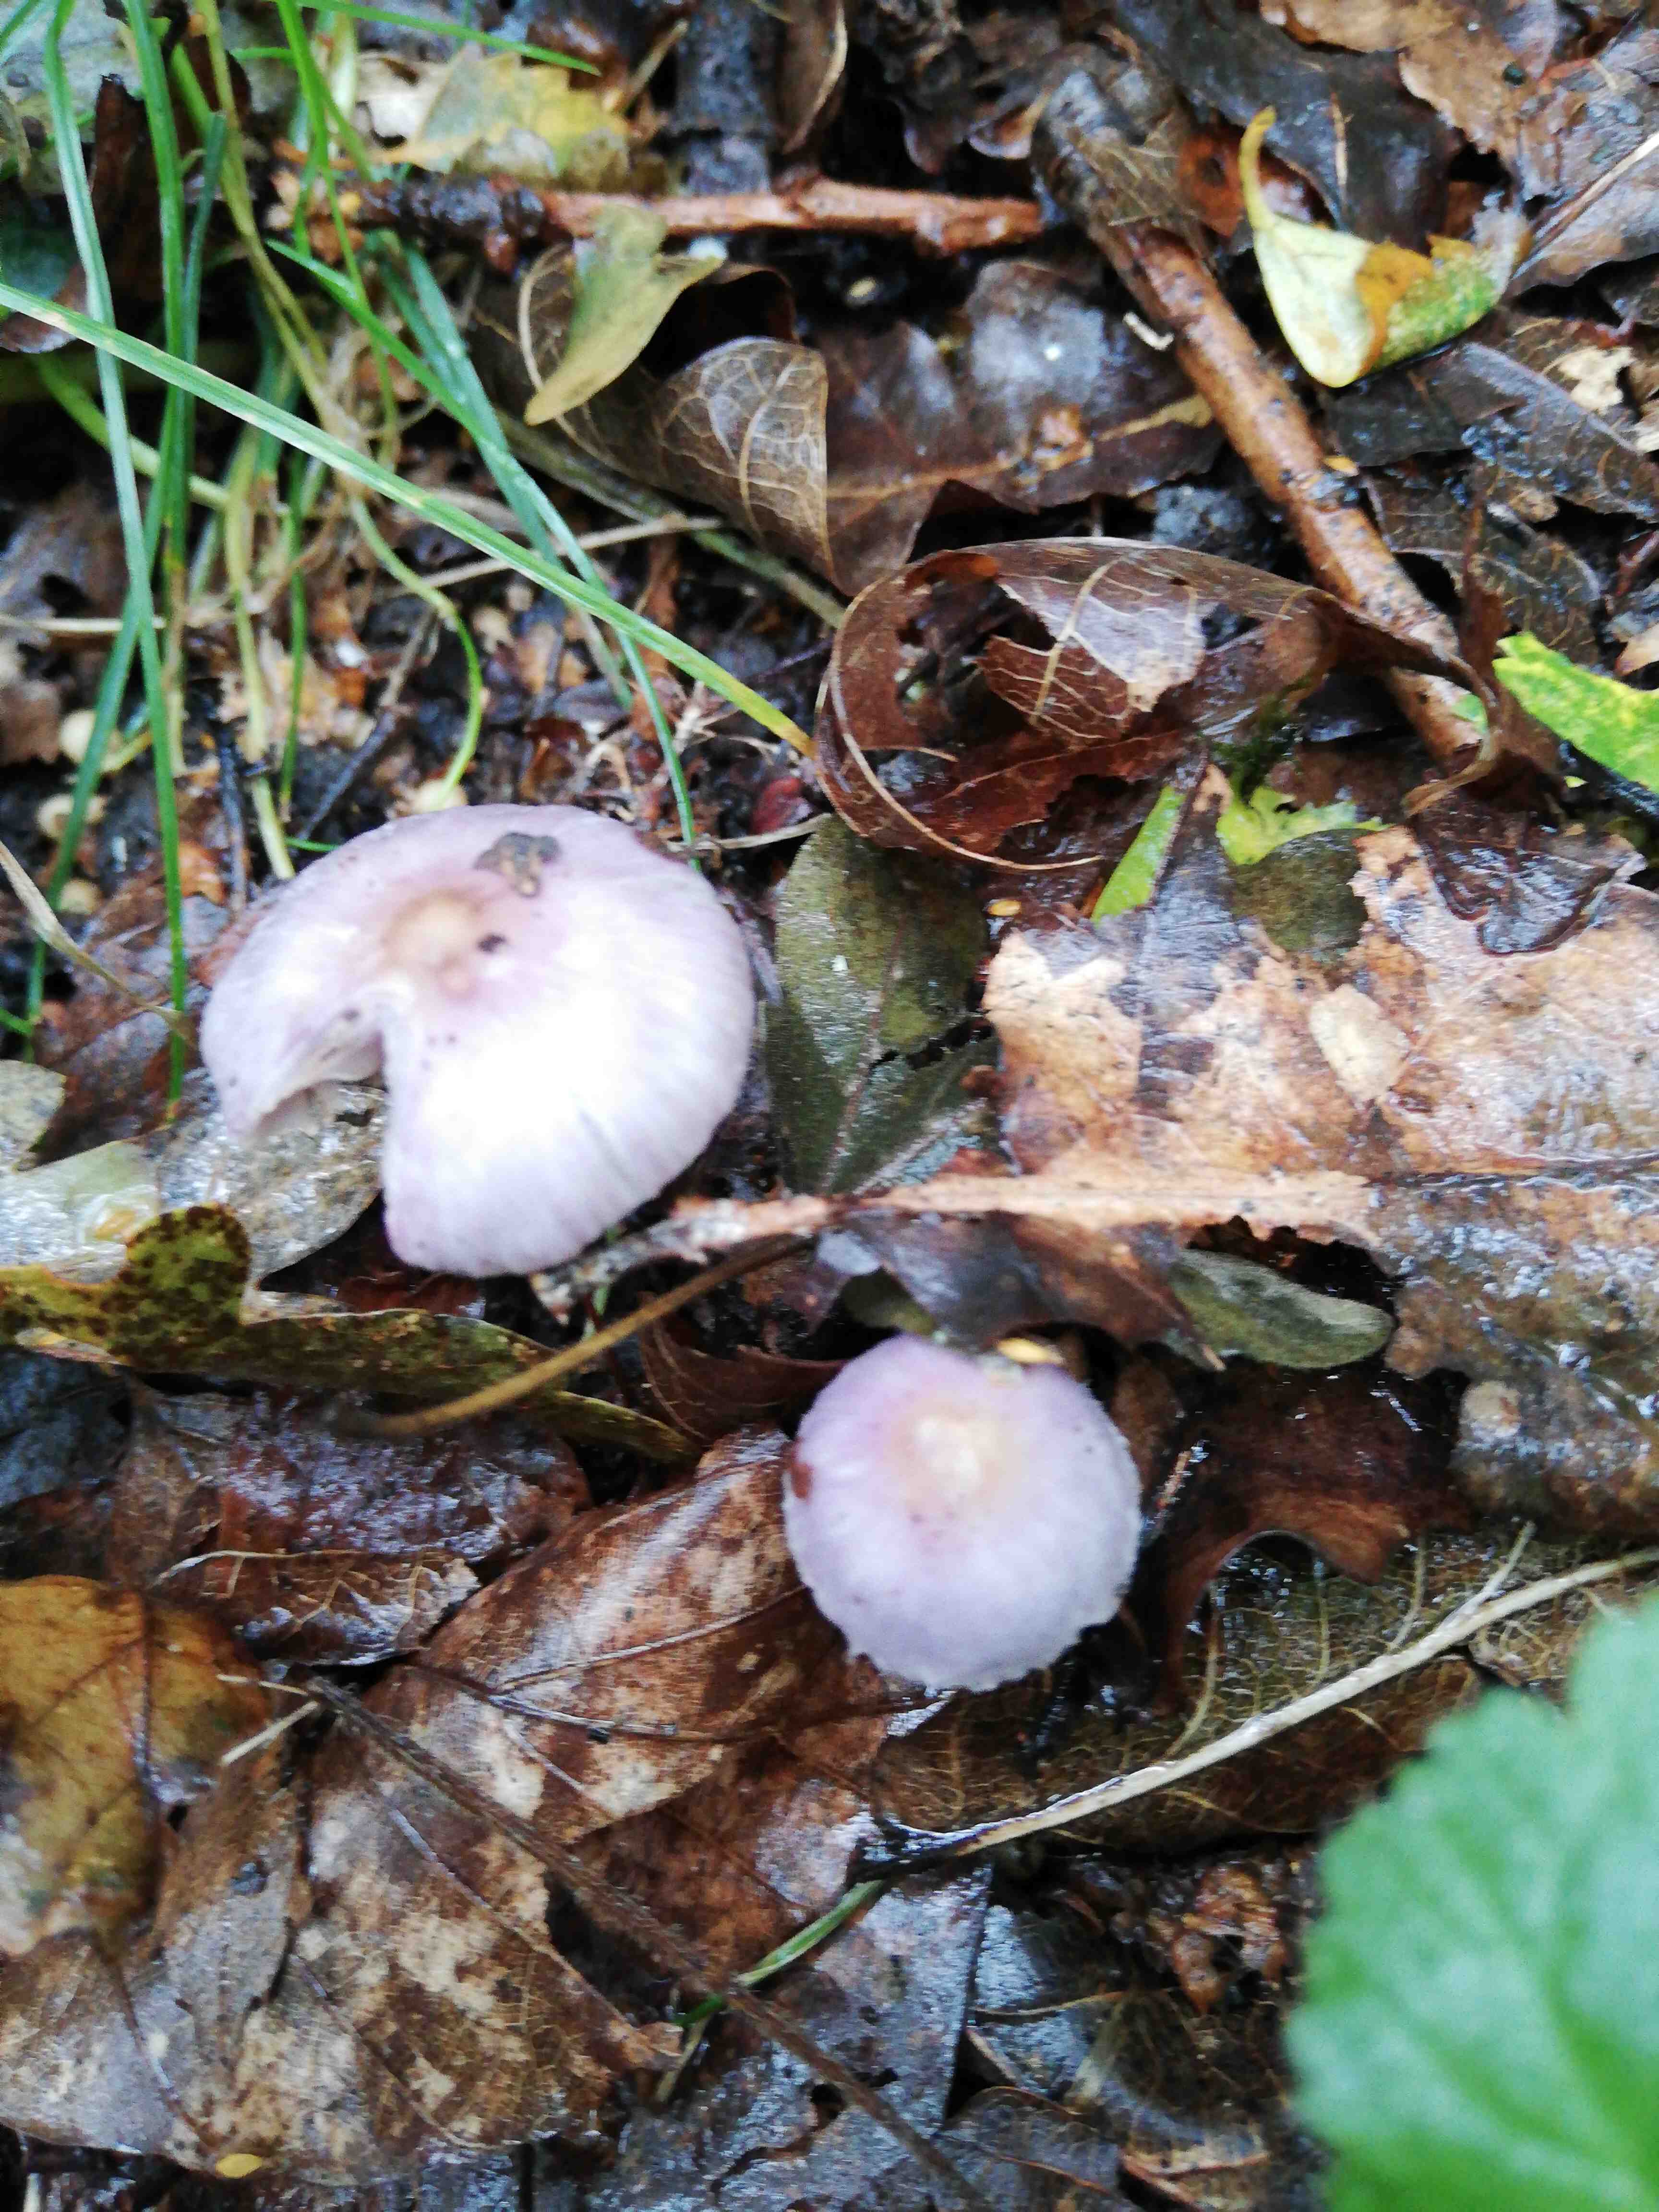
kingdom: Fungi
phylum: Basidiomycota
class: Agaricomycetes
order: Agaricales
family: Inocybaceae
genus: Inocybe
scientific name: Inocybe geophylla
